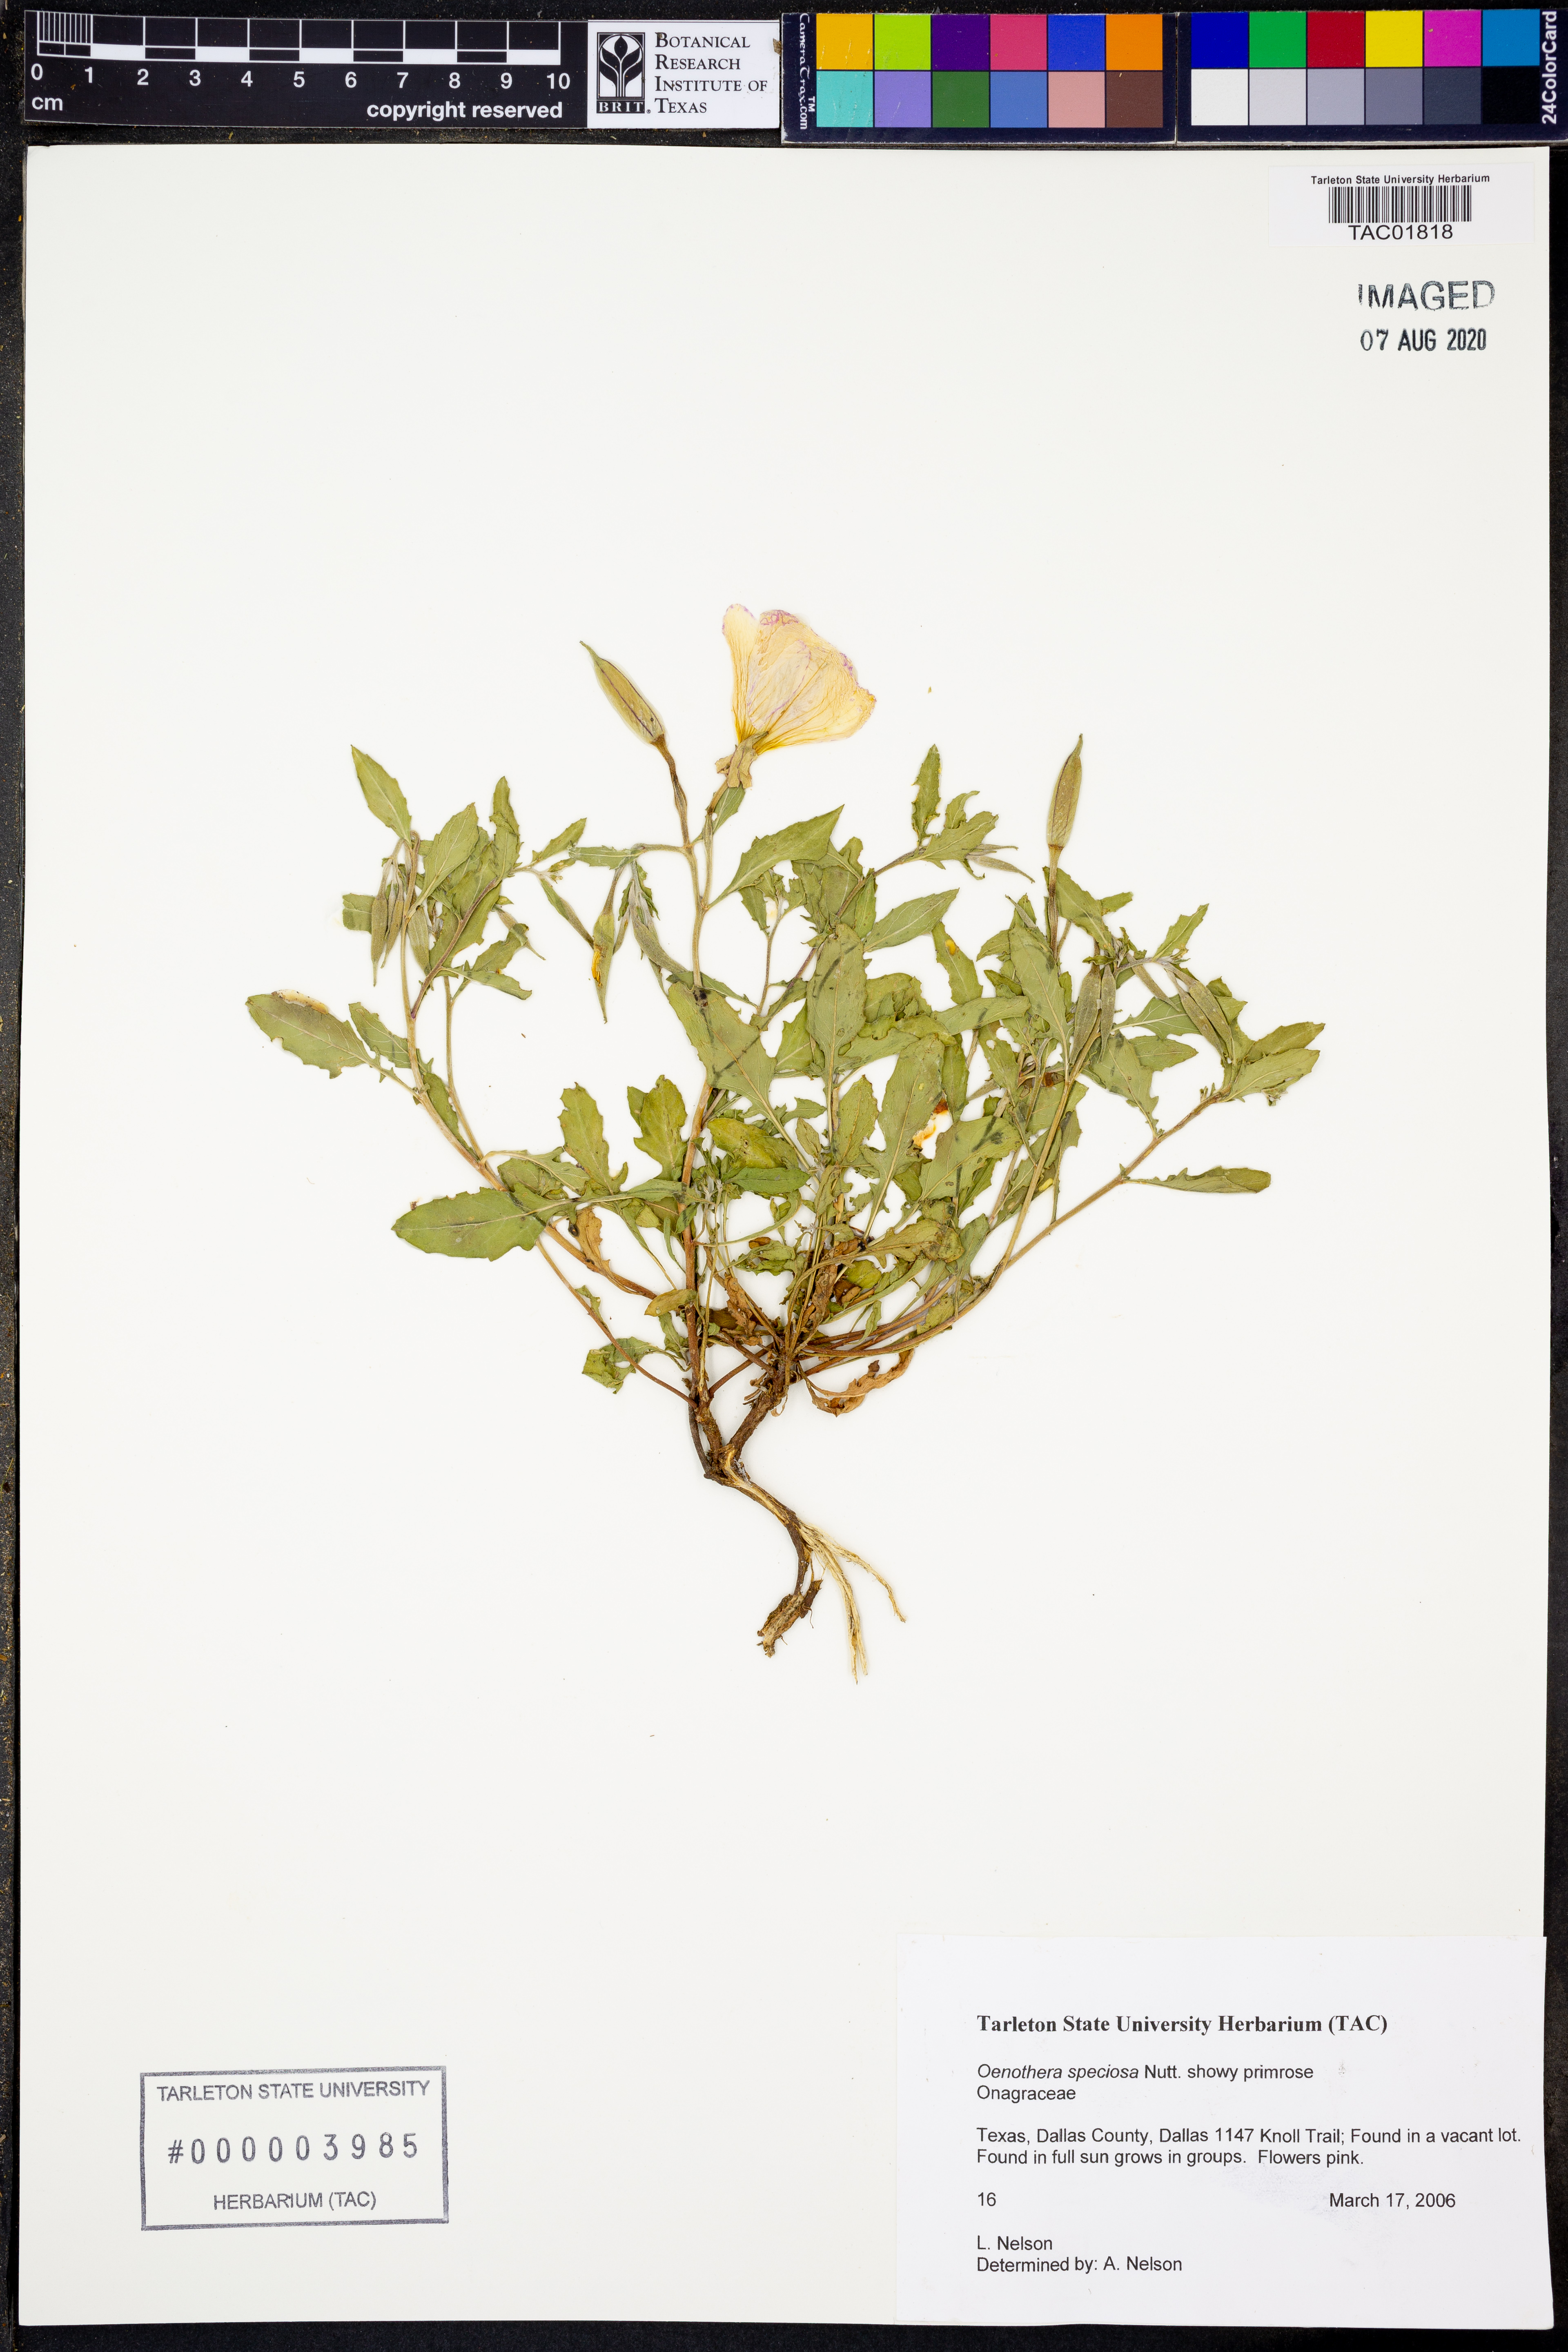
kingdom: Plantae
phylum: Tracheophyta
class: Magnoliopsida
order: Myrtales
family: Onagraceae
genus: Oenothera
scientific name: Oenothera speciosa
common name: White evening-primrose
